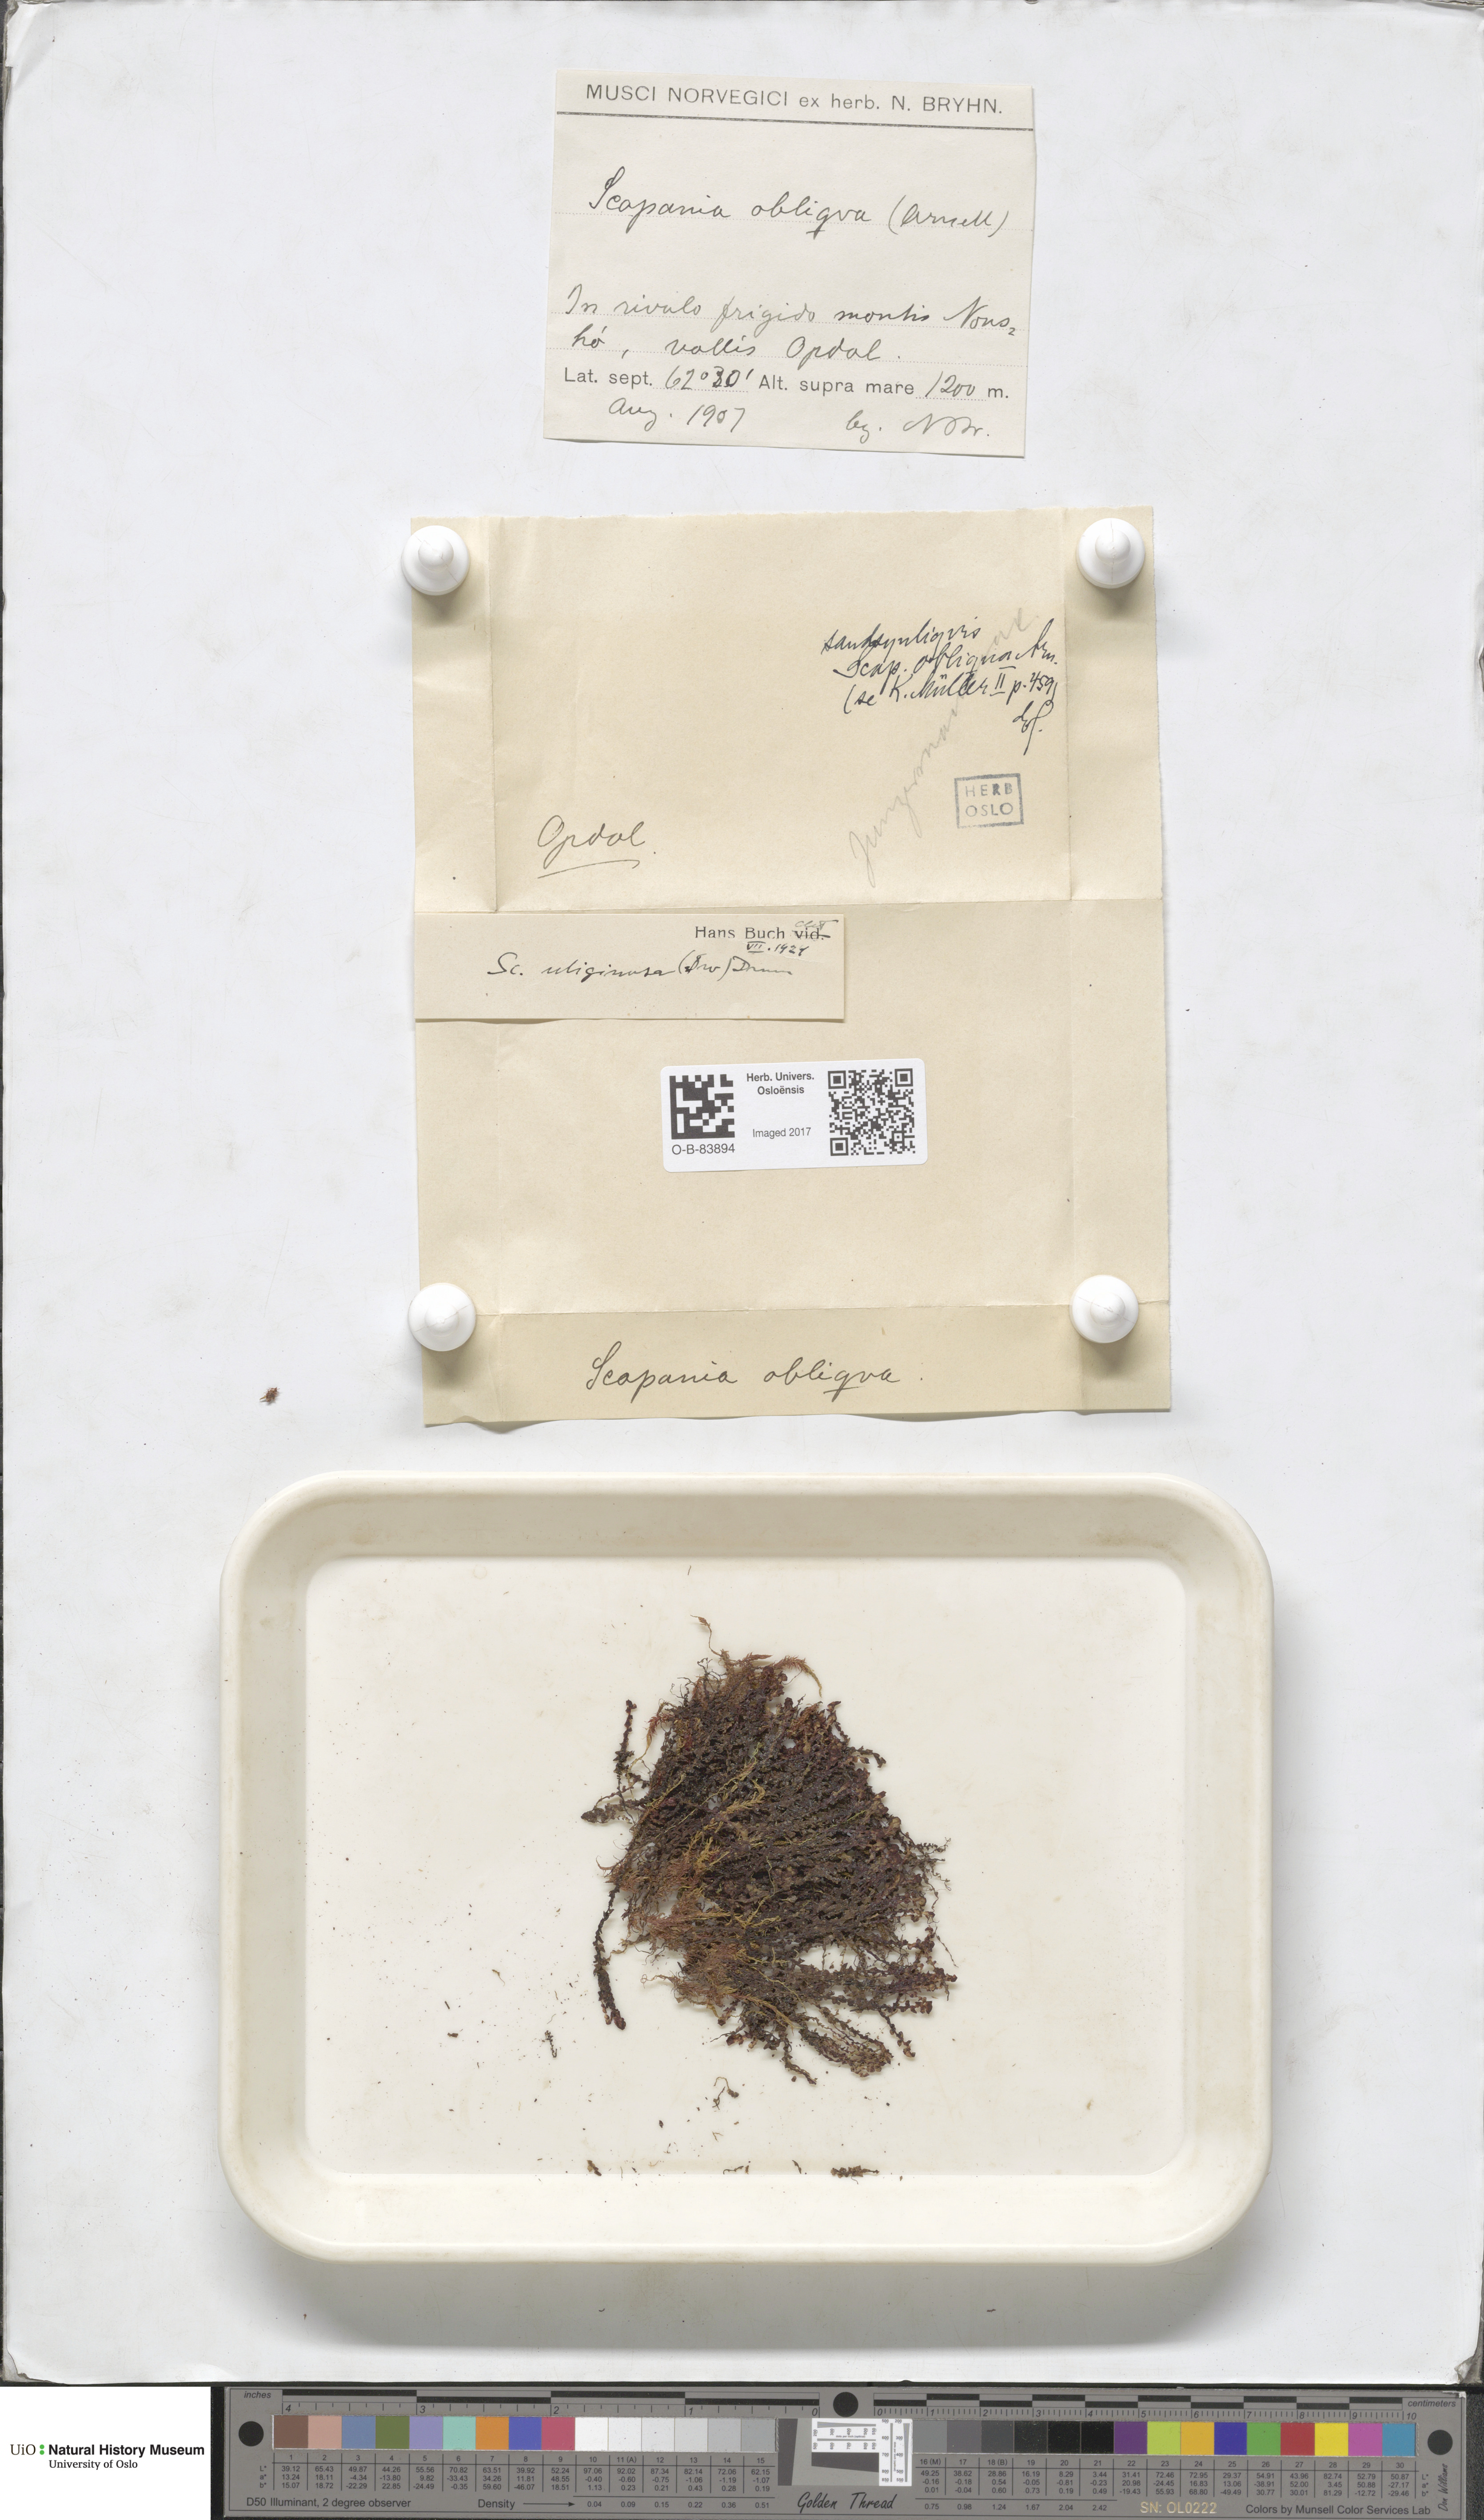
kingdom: Plantae
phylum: Marchantiophyta
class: Jungermanniopsida
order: Jungermanniales
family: Scapaniaceae
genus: Scapania
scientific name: Scapania uliginosa
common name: Marsh earwort
